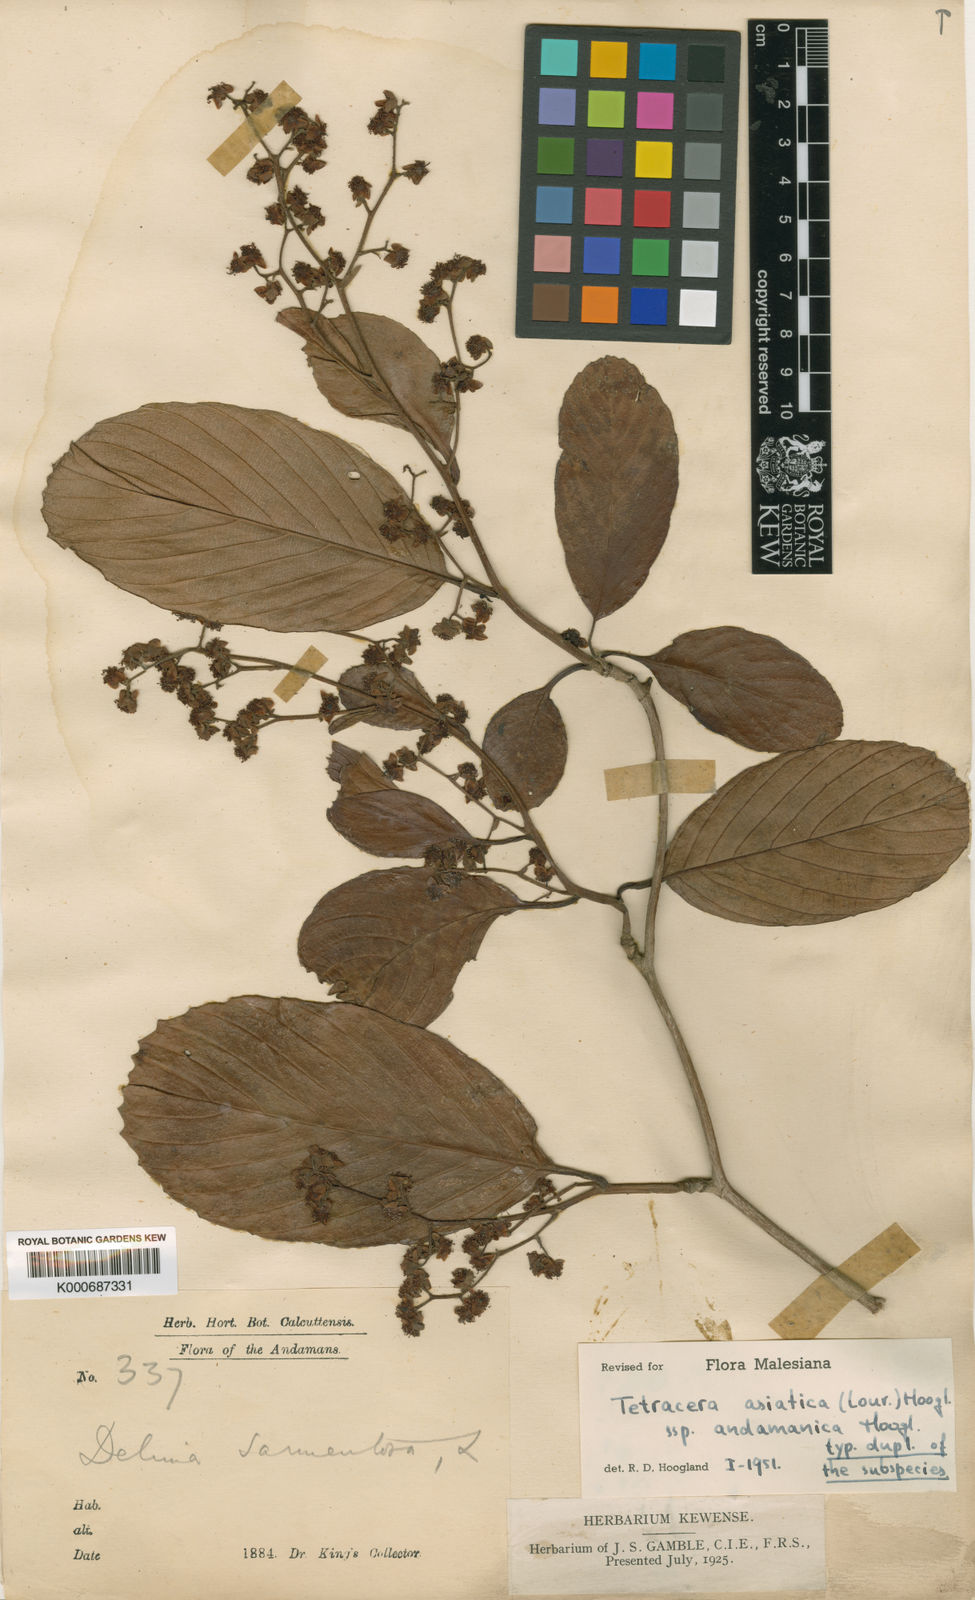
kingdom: Plantae
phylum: Tracheophyta
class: Magnoliopsida
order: Dilleniales
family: Dilleniaceae
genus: Tetracera
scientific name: Tetracera sarmentosa
